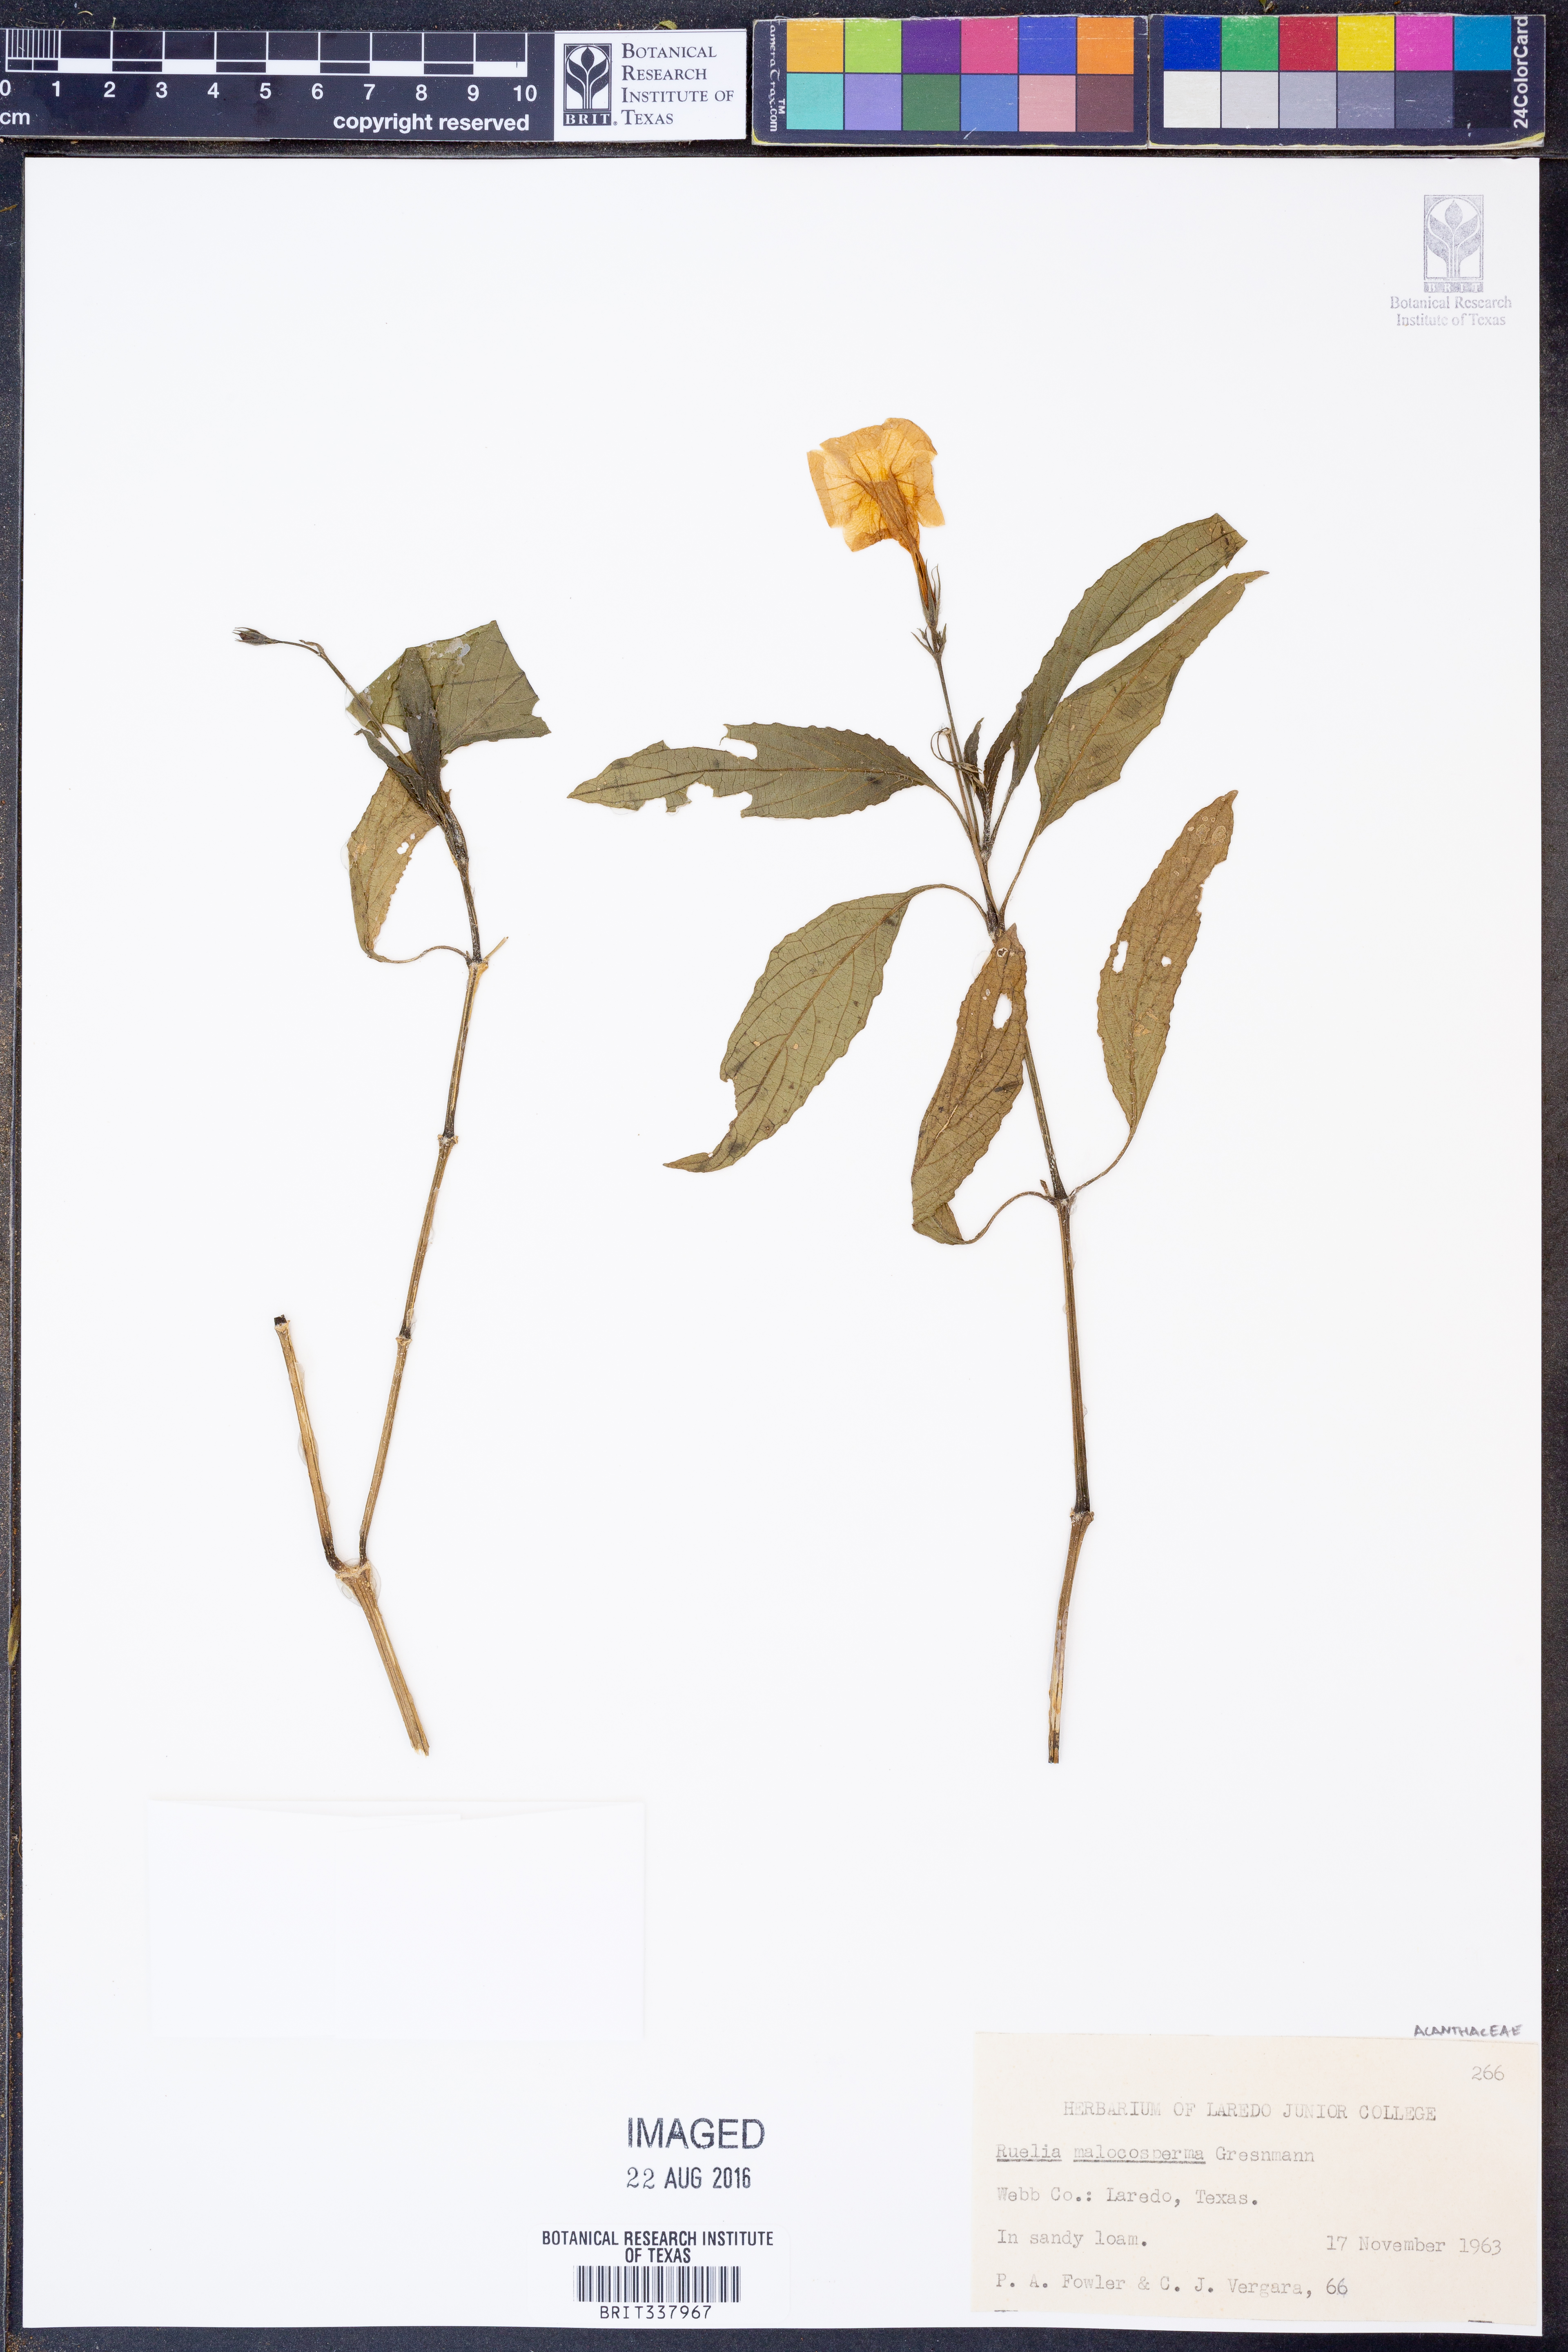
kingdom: Plantae
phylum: Tracheophyta
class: Magnoliopsida
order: Lamiales
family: Acanthaceae
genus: Ruellia
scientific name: Ruellia malacosperma
